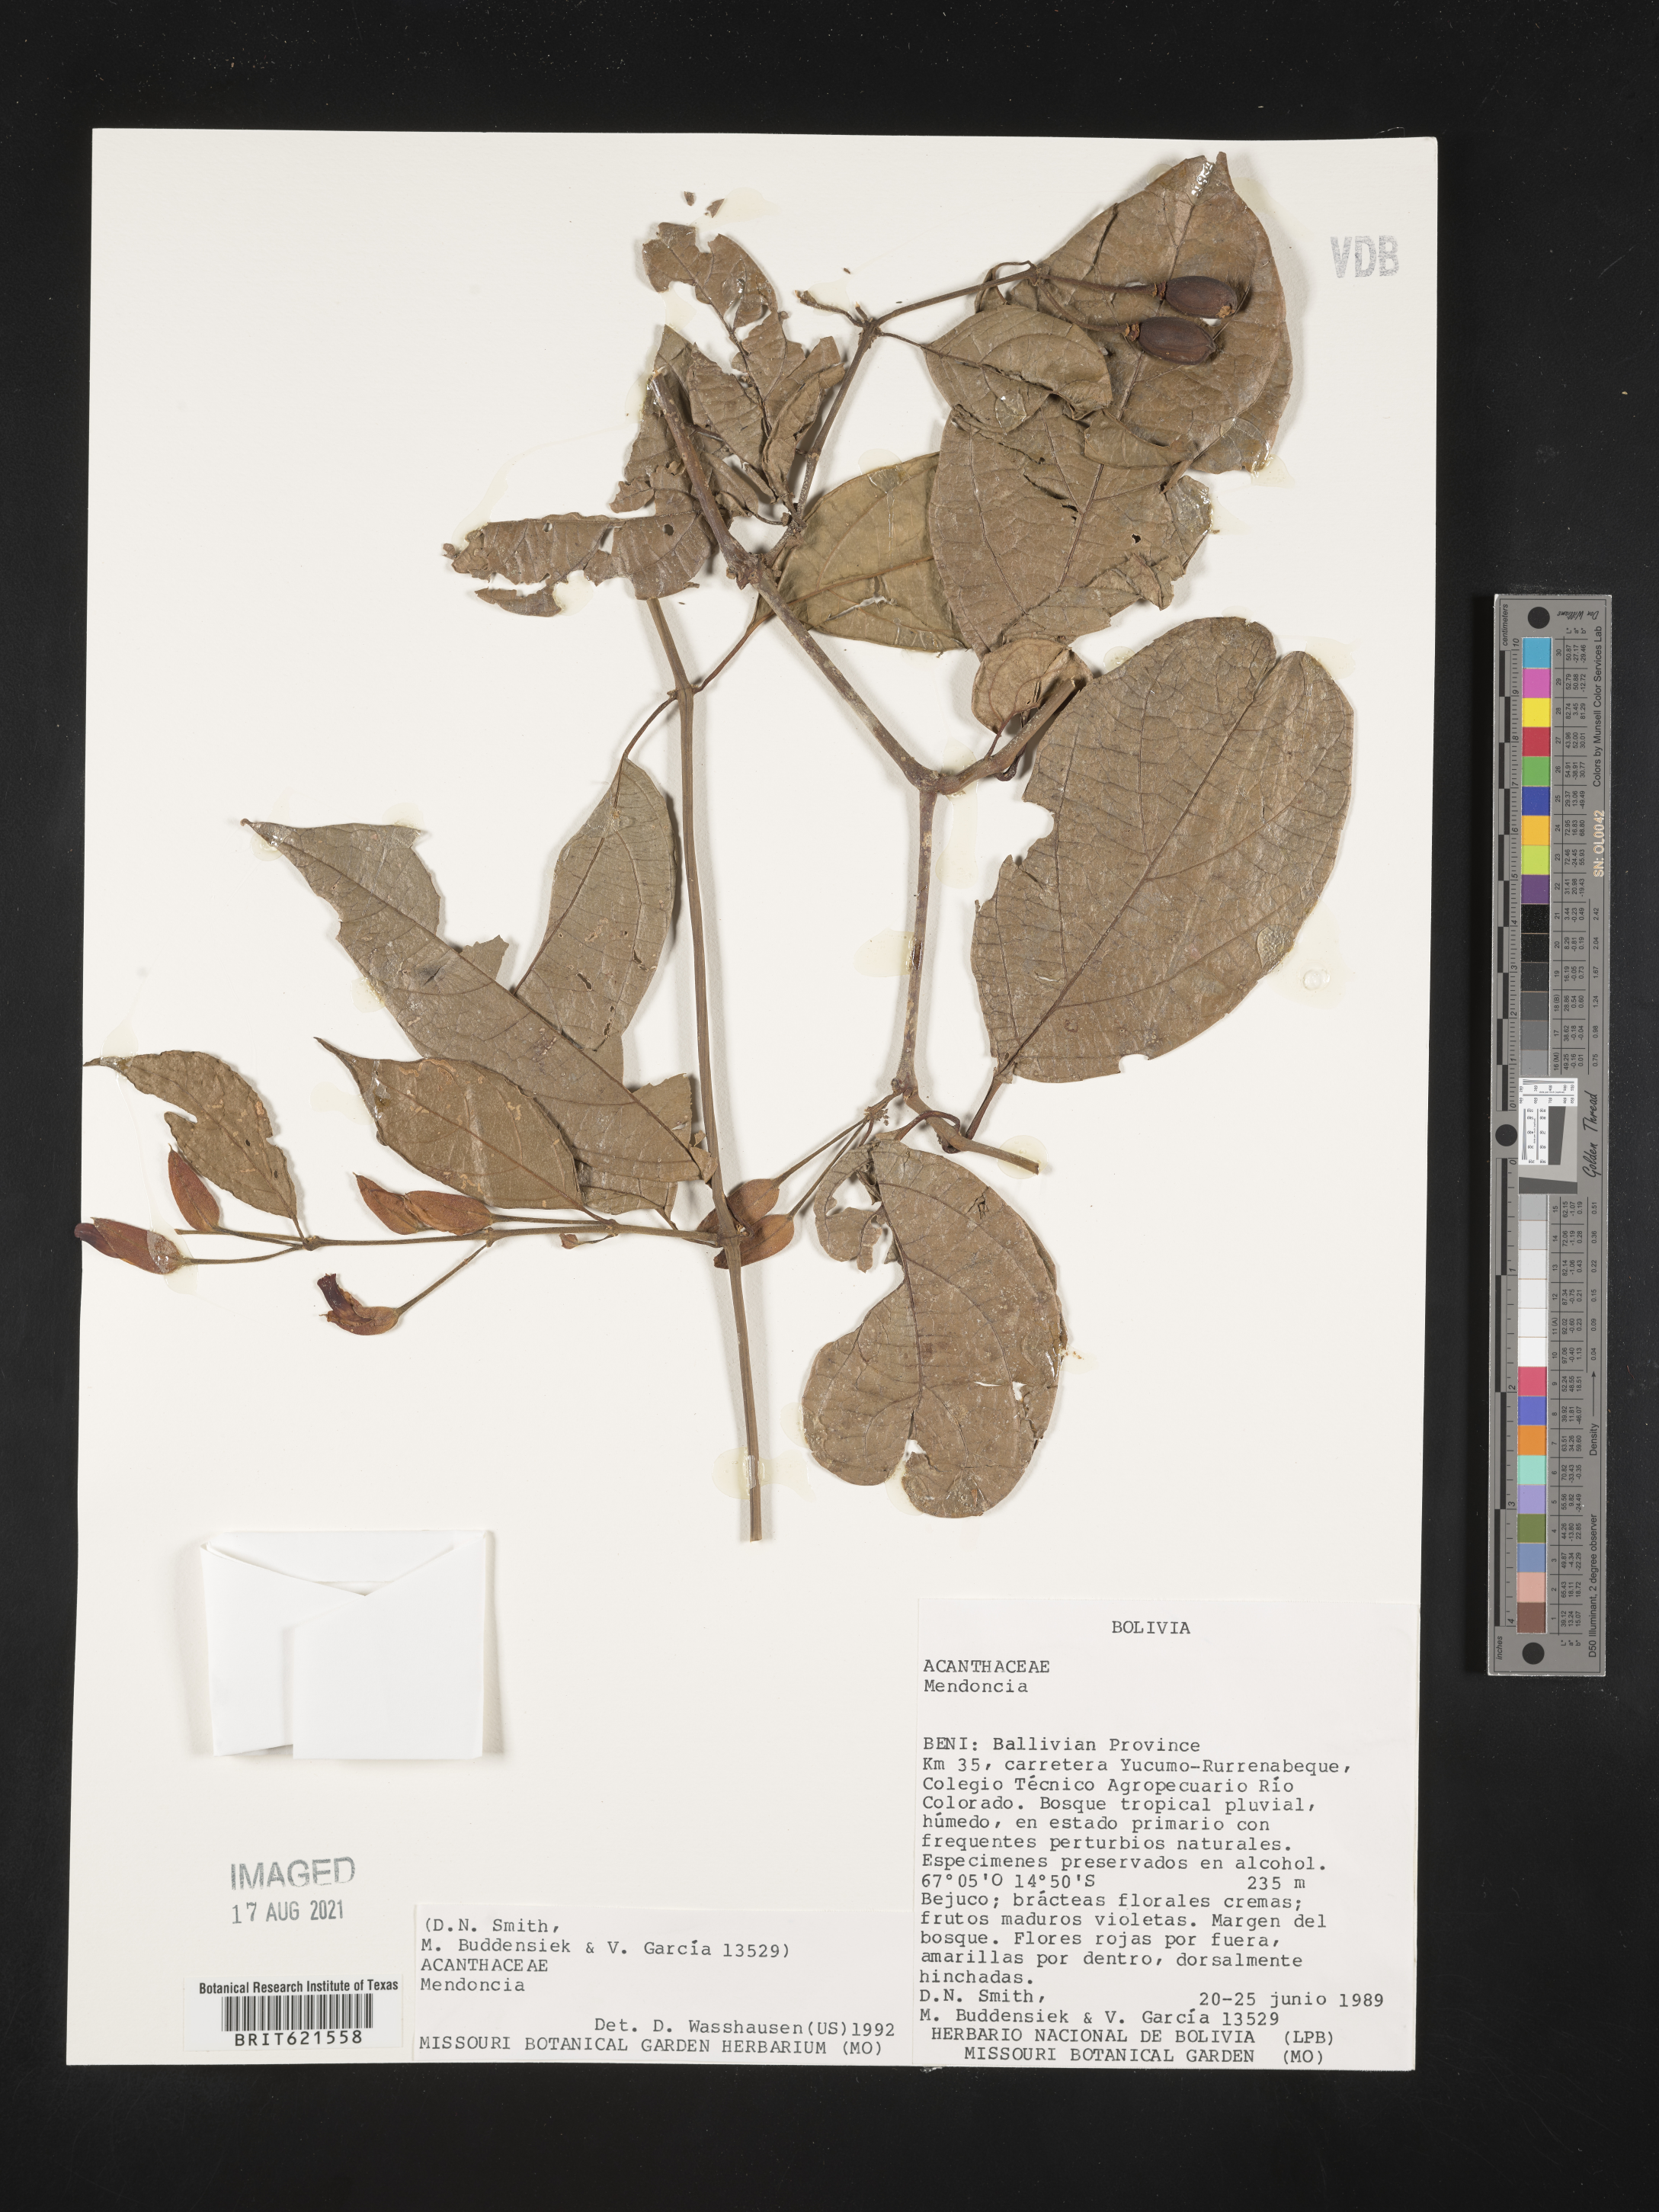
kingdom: Plantae
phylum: Tracheophyta
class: Magnoliopsida
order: Lamiales
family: Acanthaceae
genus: Mendoncia
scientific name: Mendoncia
